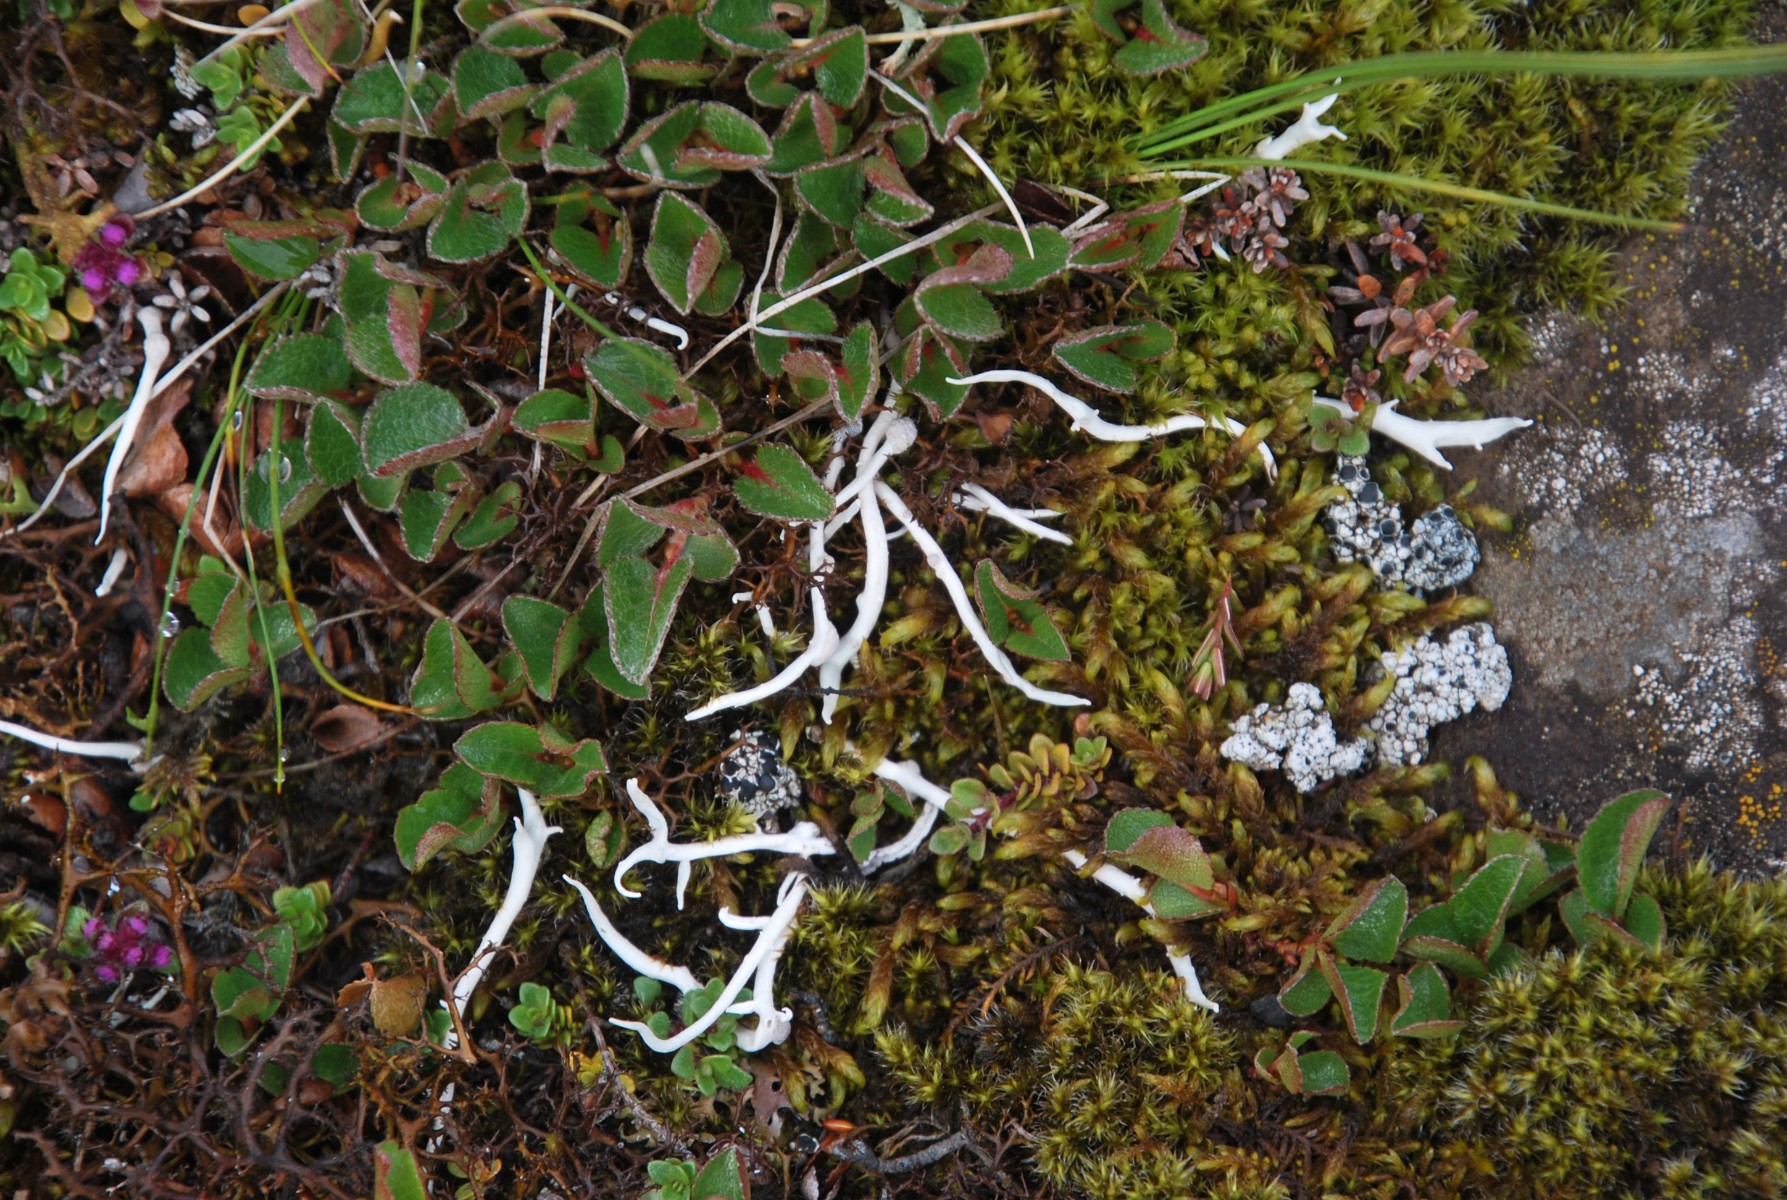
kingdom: Fungi
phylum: Ascomycota
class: Lecanoromycetes
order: Pertusariales
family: Icmadophilaceae
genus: Thamnolia
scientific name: Thamnolia vermicularis
